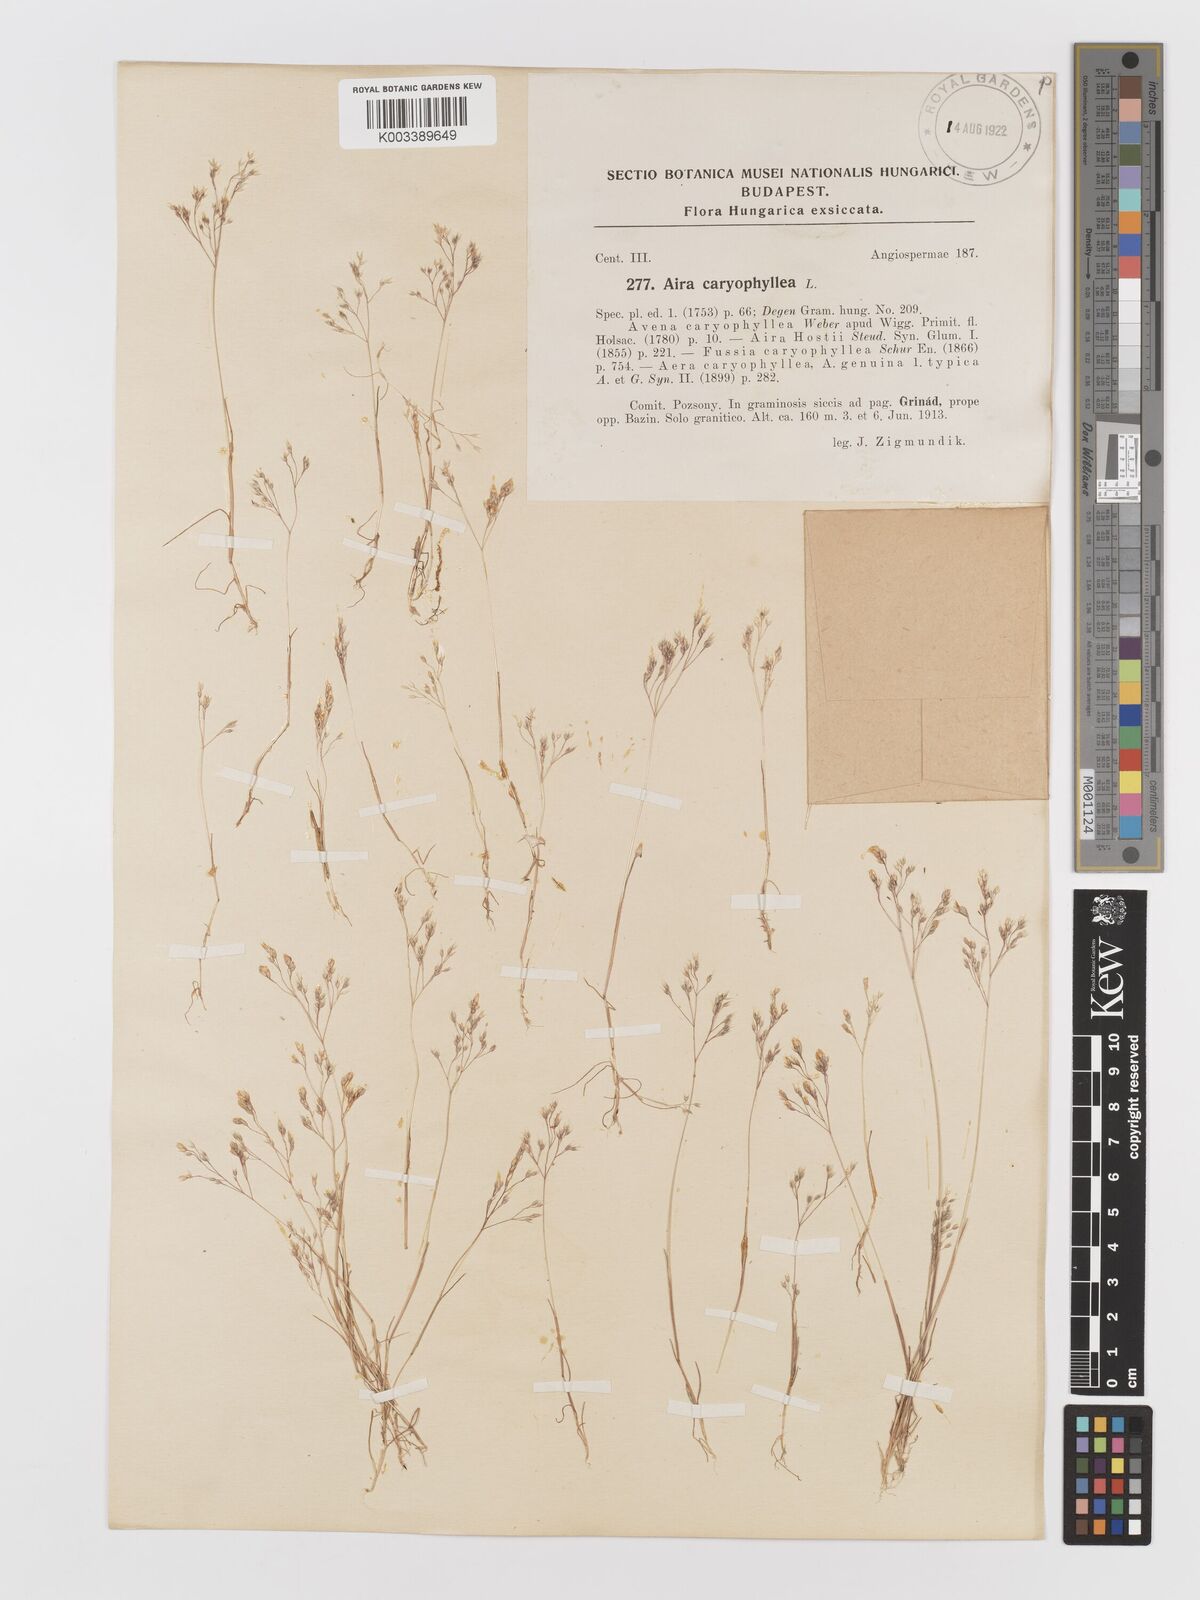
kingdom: Plantae
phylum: Tracheophyta
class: Liliopsida
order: Poales
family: Poaceae
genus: Aira
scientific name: Aira caryophyllea
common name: Silver hairgrass
